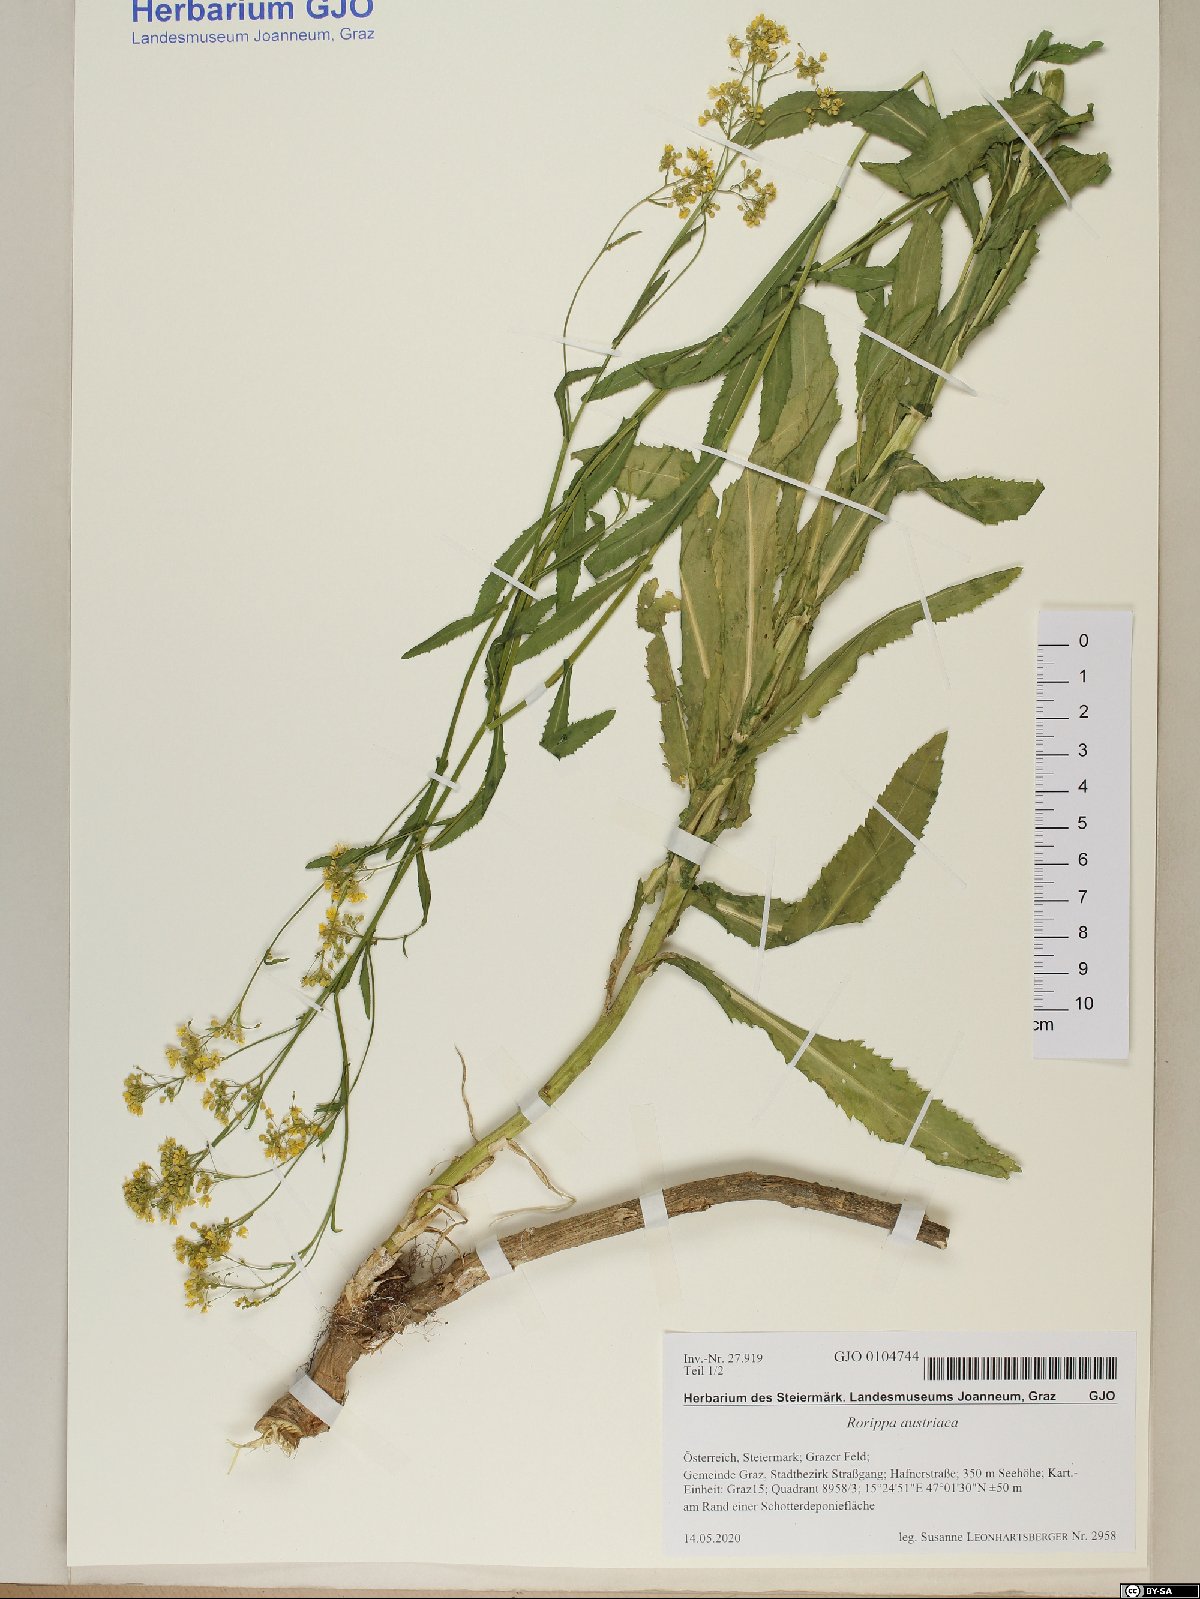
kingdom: Plantae
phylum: Tracheophyta
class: Magnoliopsida
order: Brassicales
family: Brassicaceae
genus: Rorippa
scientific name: Rorippa austriaca
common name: Austrian yellow-cress
